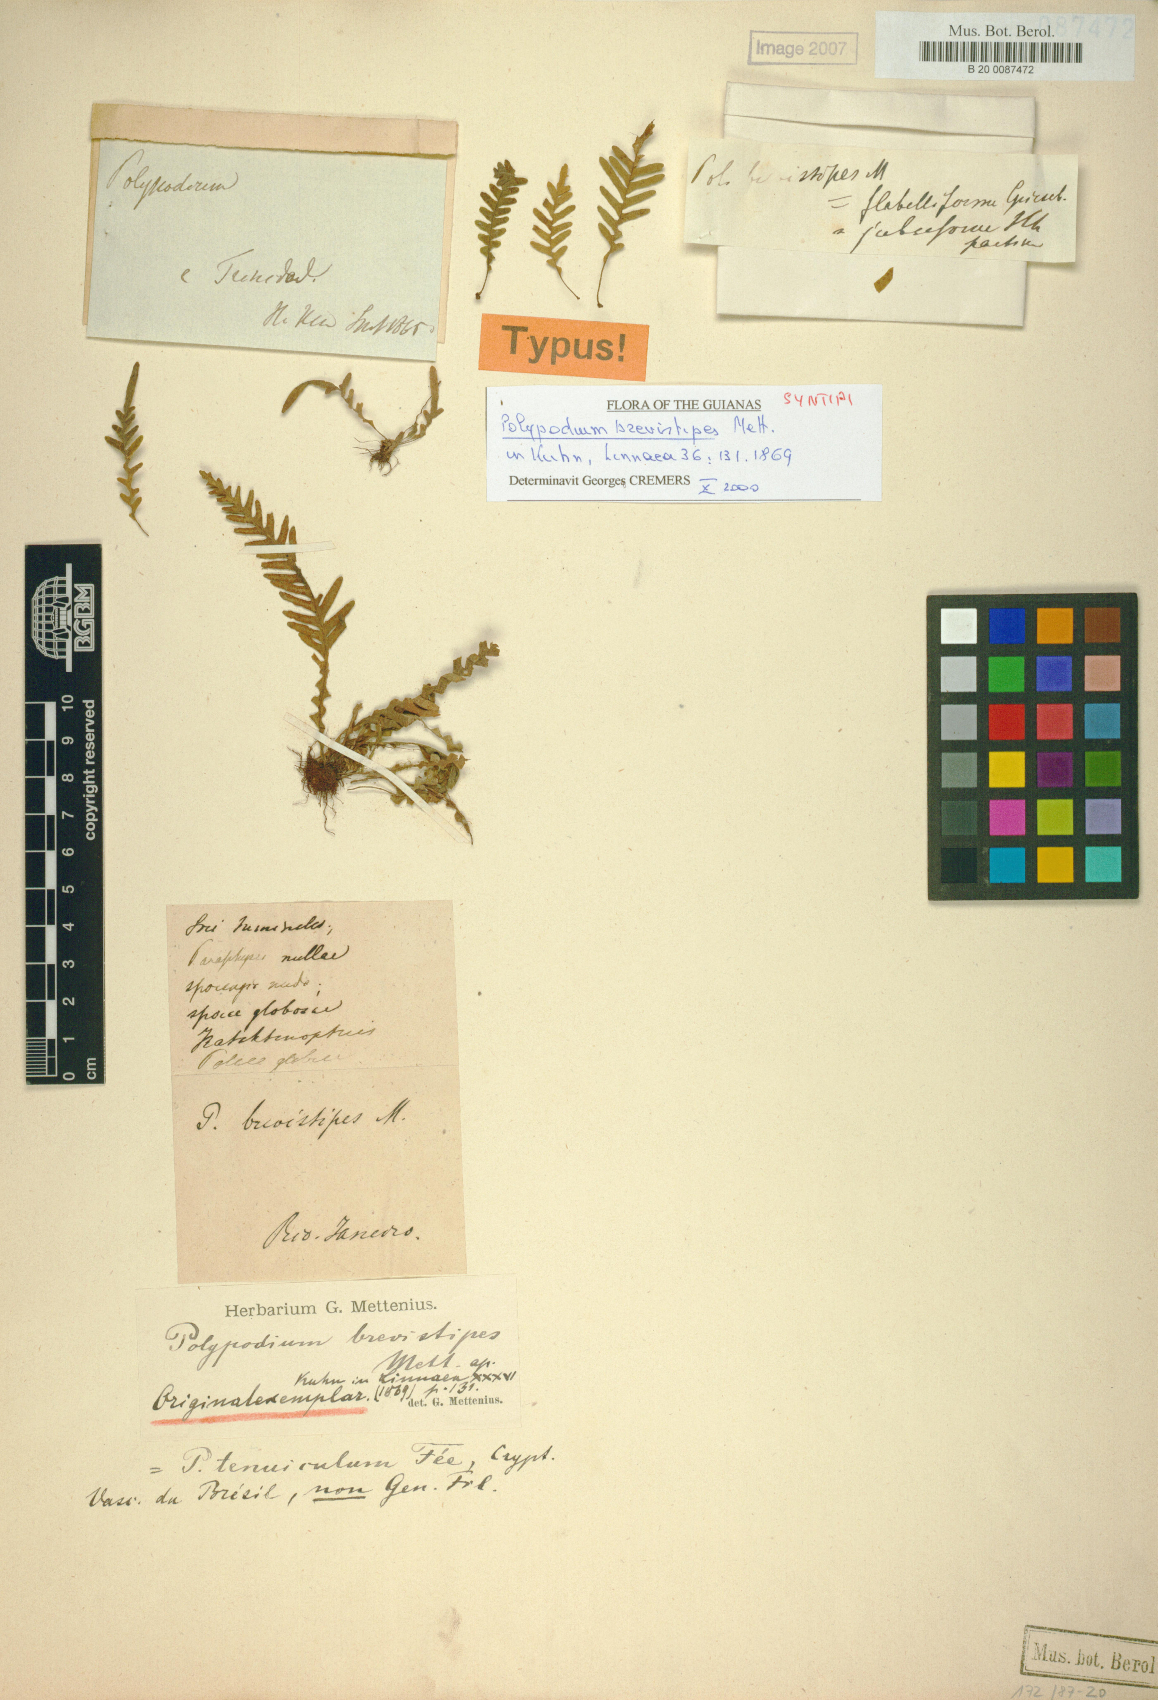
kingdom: Plantae
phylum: Tracheophyta
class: Polypodiopsida
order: Polypodiales
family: Polypodiaceae
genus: Lellingeria
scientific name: Lellingeria brevistipes
